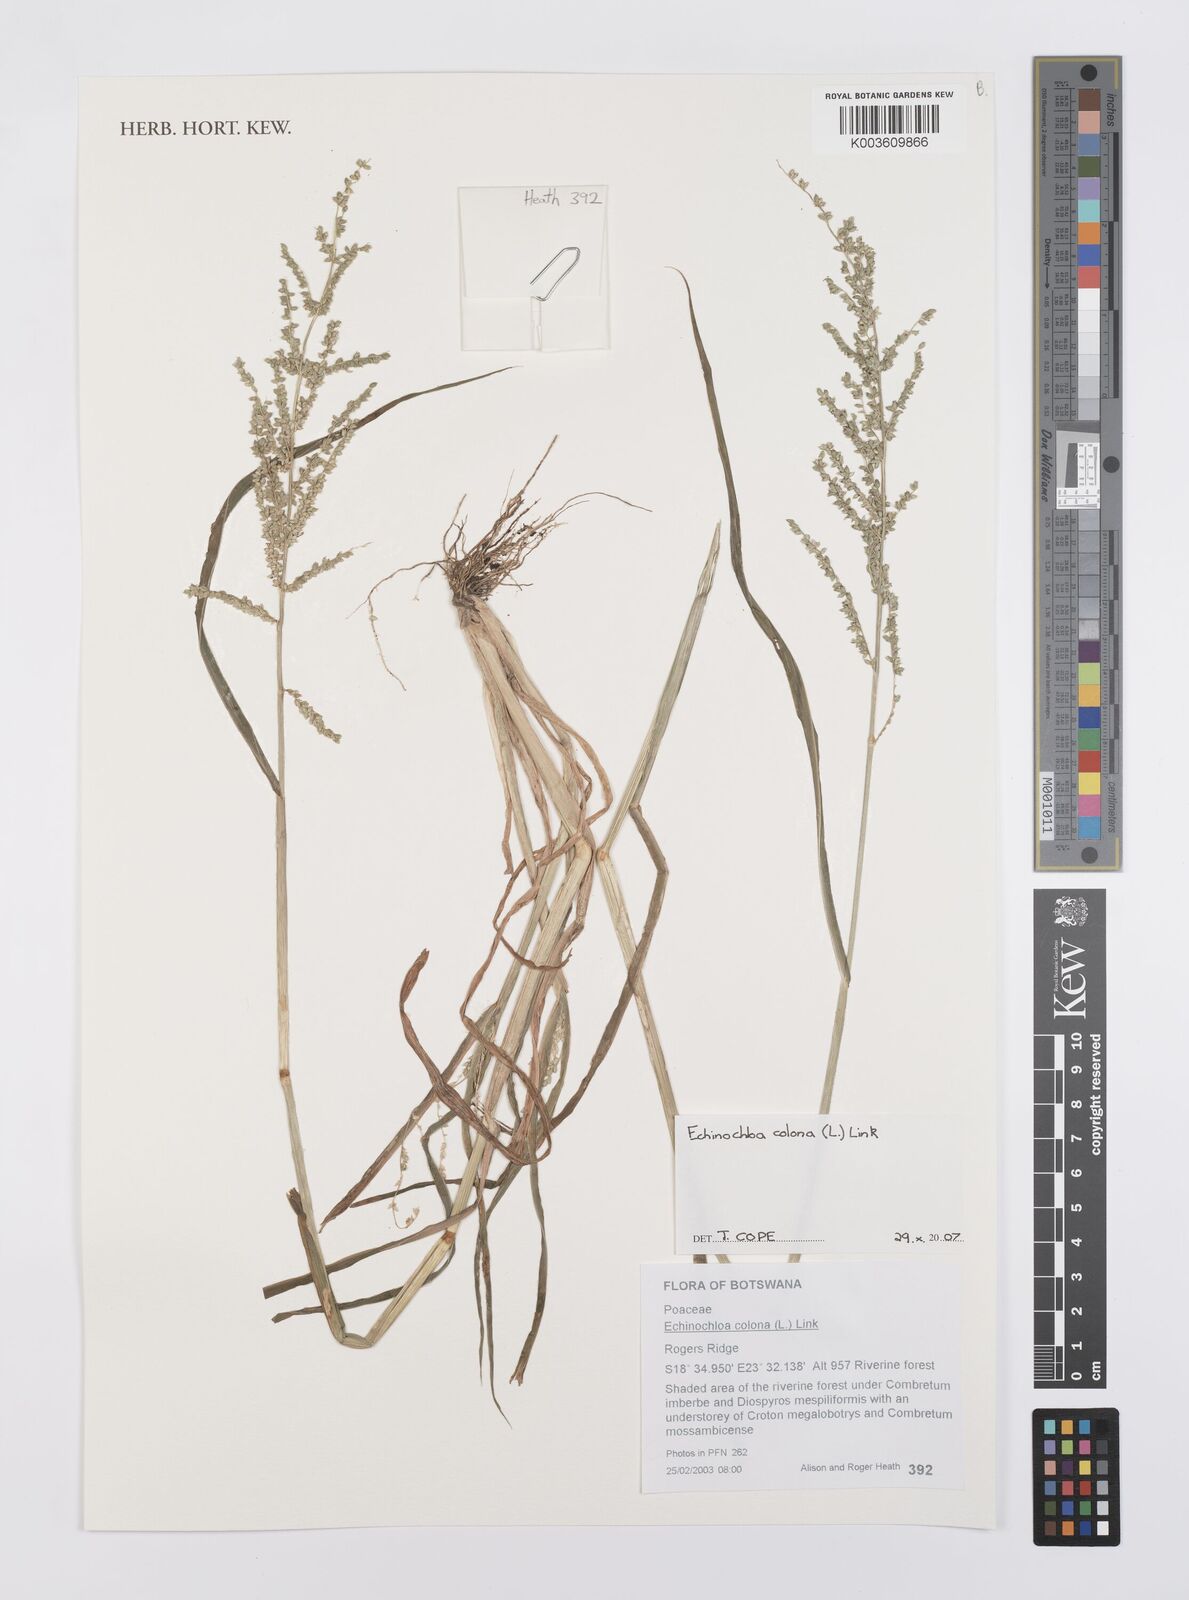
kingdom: Plantae
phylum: Tracheophyta
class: Liliopsida
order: Poales
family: Poaceae
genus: Echinochloa
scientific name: Echinochloa colonum
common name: Jungle rice
